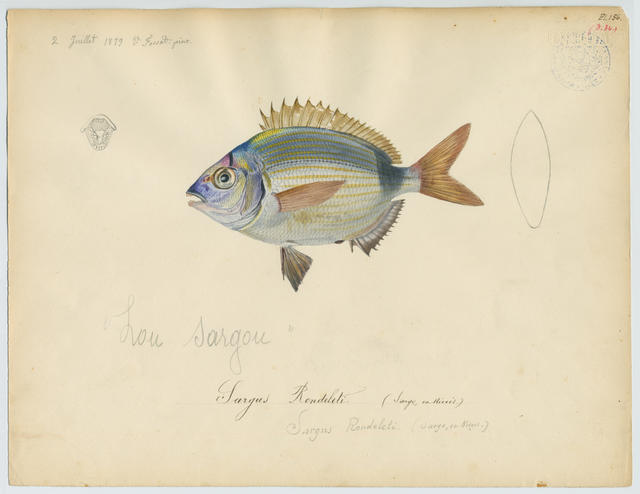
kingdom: Animalia
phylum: Chordata
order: Perciformes
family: Sparidae
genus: Diplodus
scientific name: Diplodus vulgaris
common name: Common two-banded seabream
